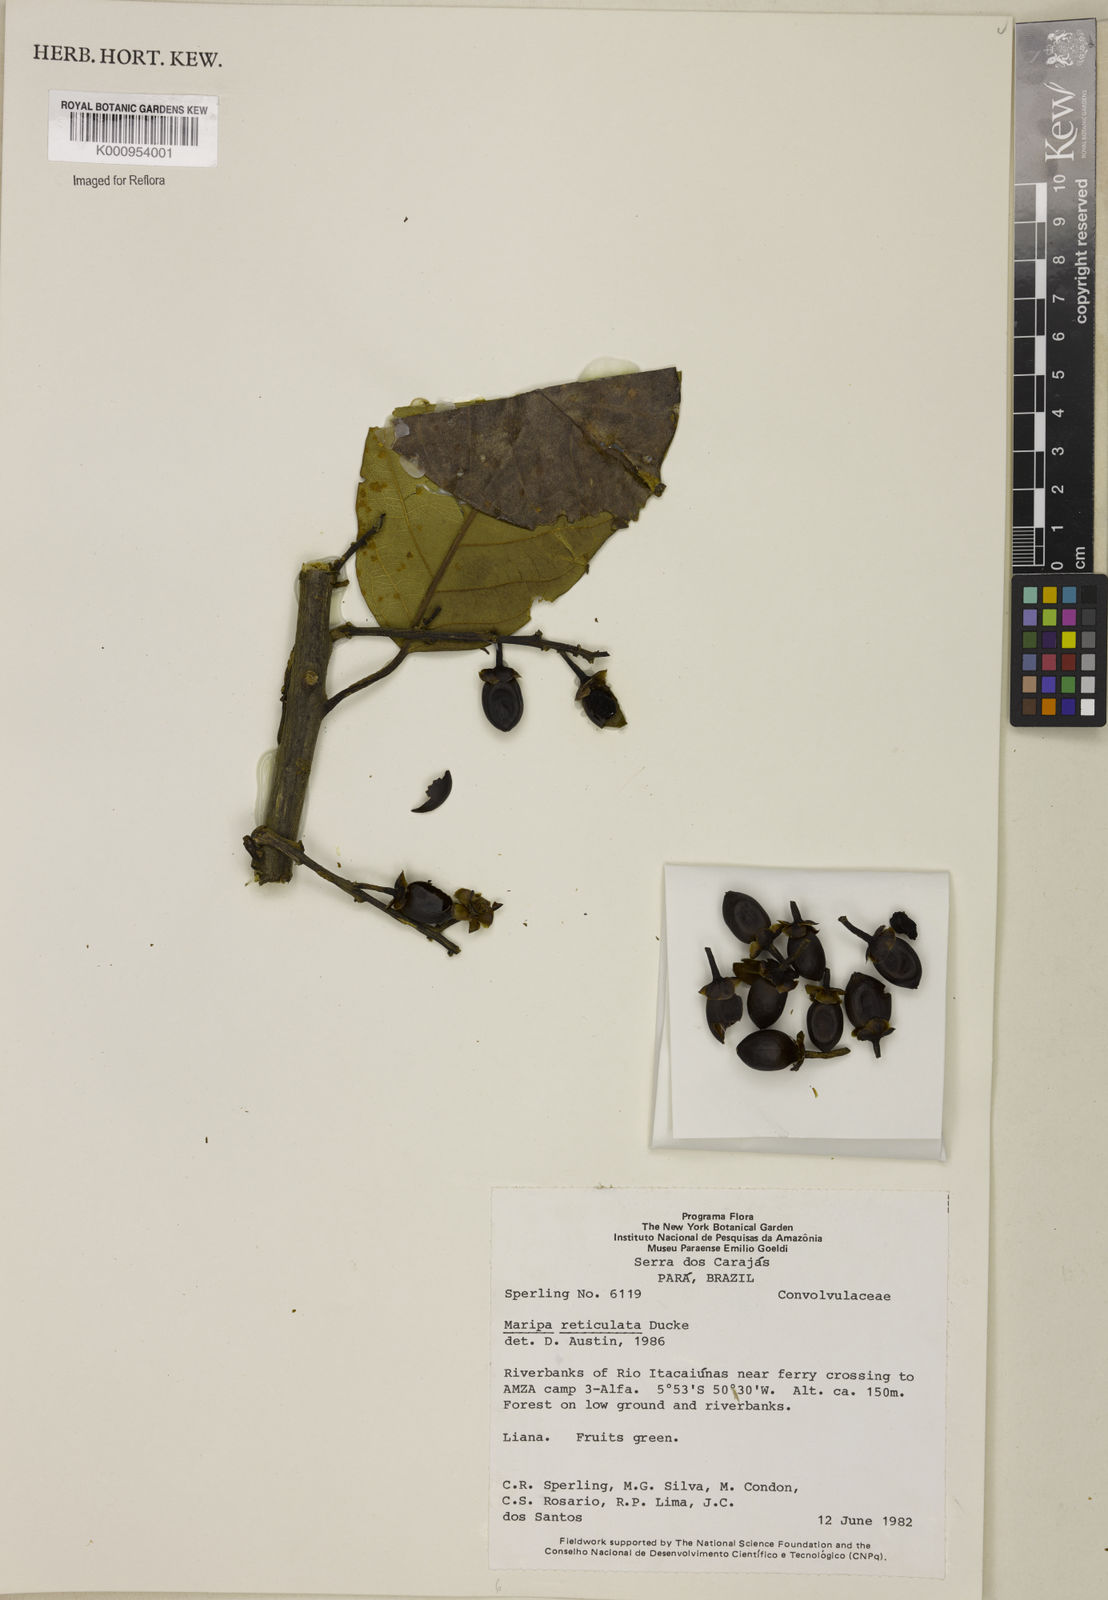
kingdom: Plantae
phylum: Tracheophyta
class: Magnoliopsida
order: Solanales
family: Convolvulaceae
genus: Maripa
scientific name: Maripa reticulata
